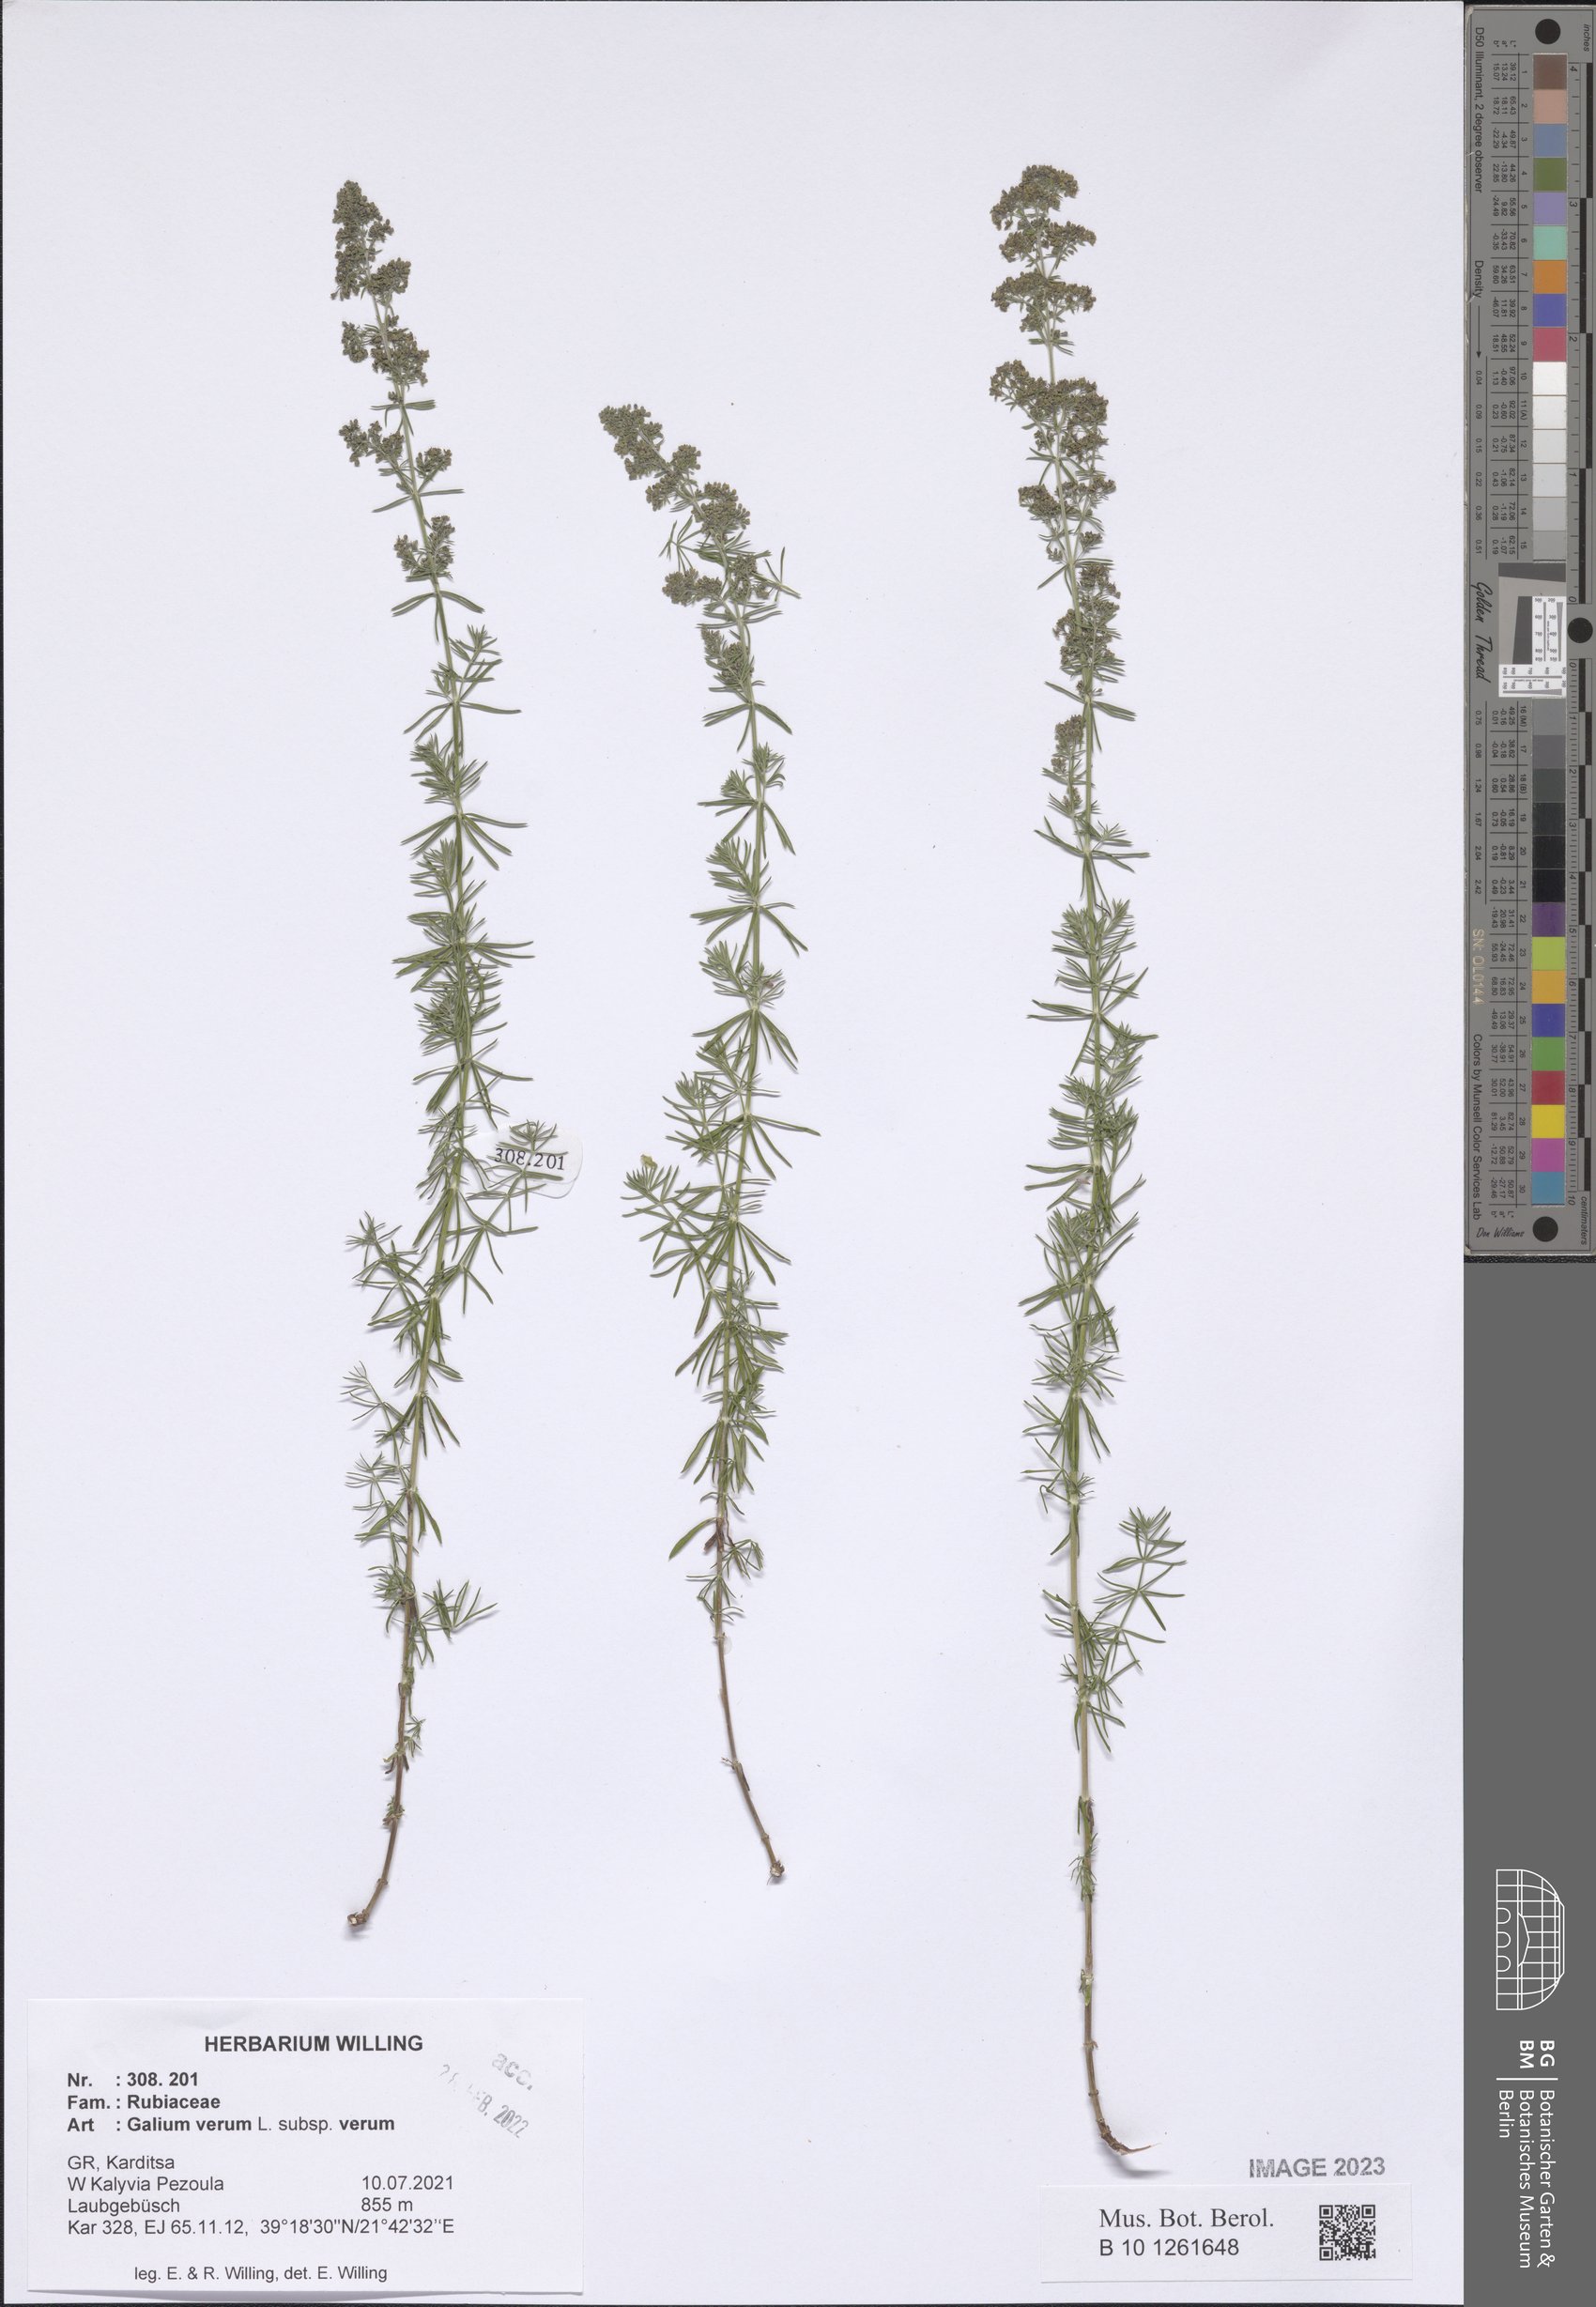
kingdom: Plantae
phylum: Tracheophyta
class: Magnoliopsida
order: Gentianales
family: Rubiaceae
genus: Galium
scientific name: Galium verum
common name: Lady's bedstraw
